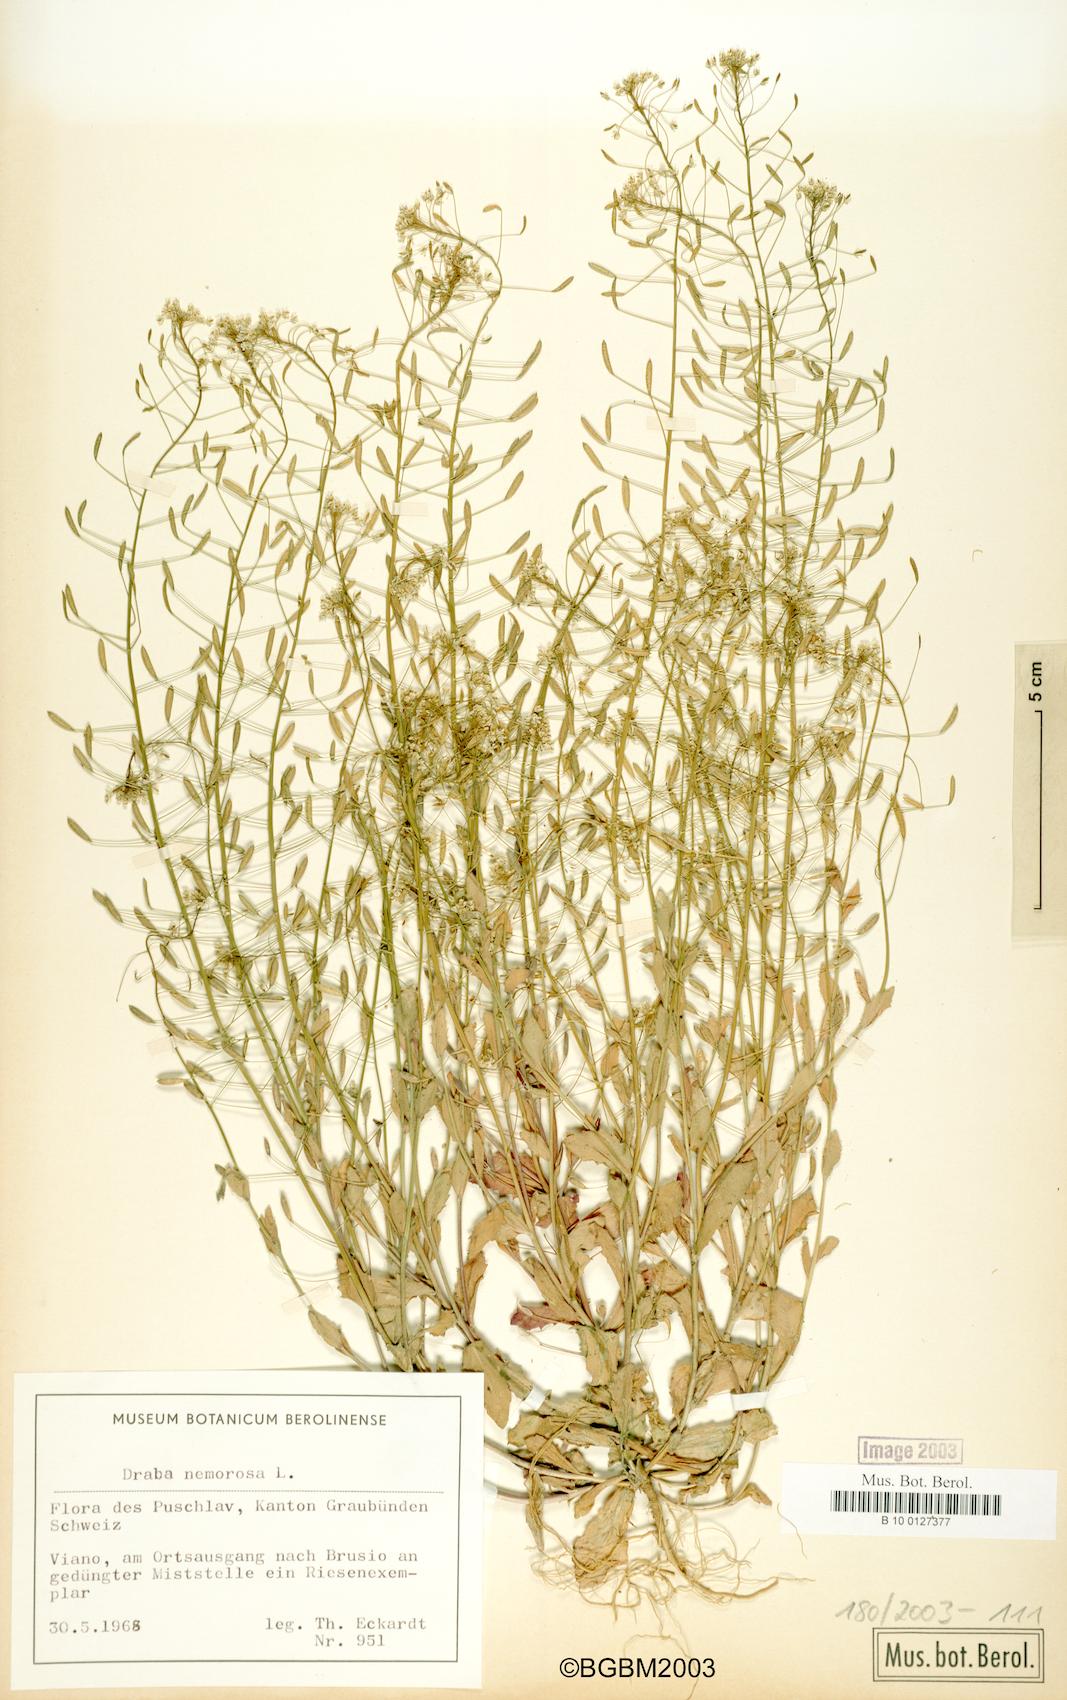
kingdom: Plantae
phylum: Tracheophyta
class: Magnoliopsida
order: Brassicales
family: Brassicaceae
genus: Draba
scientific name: Draba nemorosa
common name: Wood whitlow-grass
